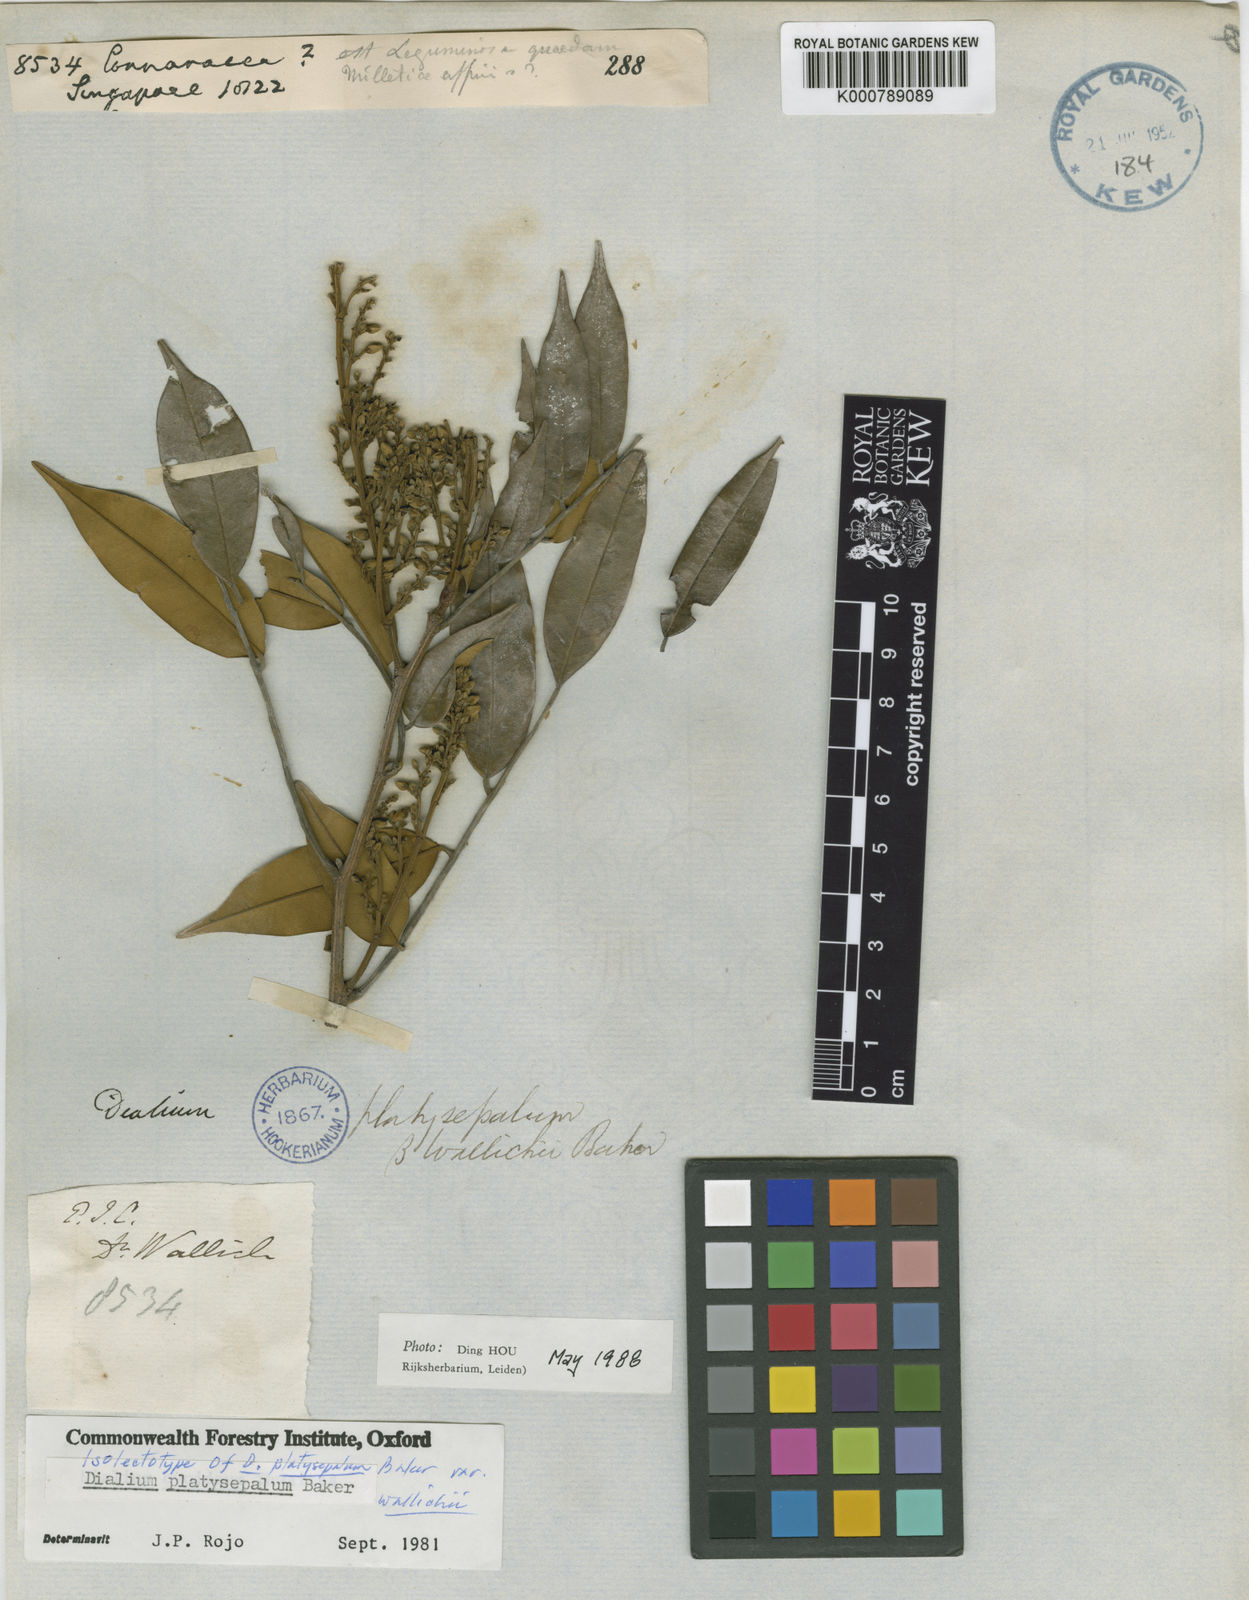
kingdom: Plantae
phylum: Tracheophyta
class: Magnoliopsida
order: Fabales
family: Fabaceae
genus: Dialium
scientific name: Dialium platysepalum
